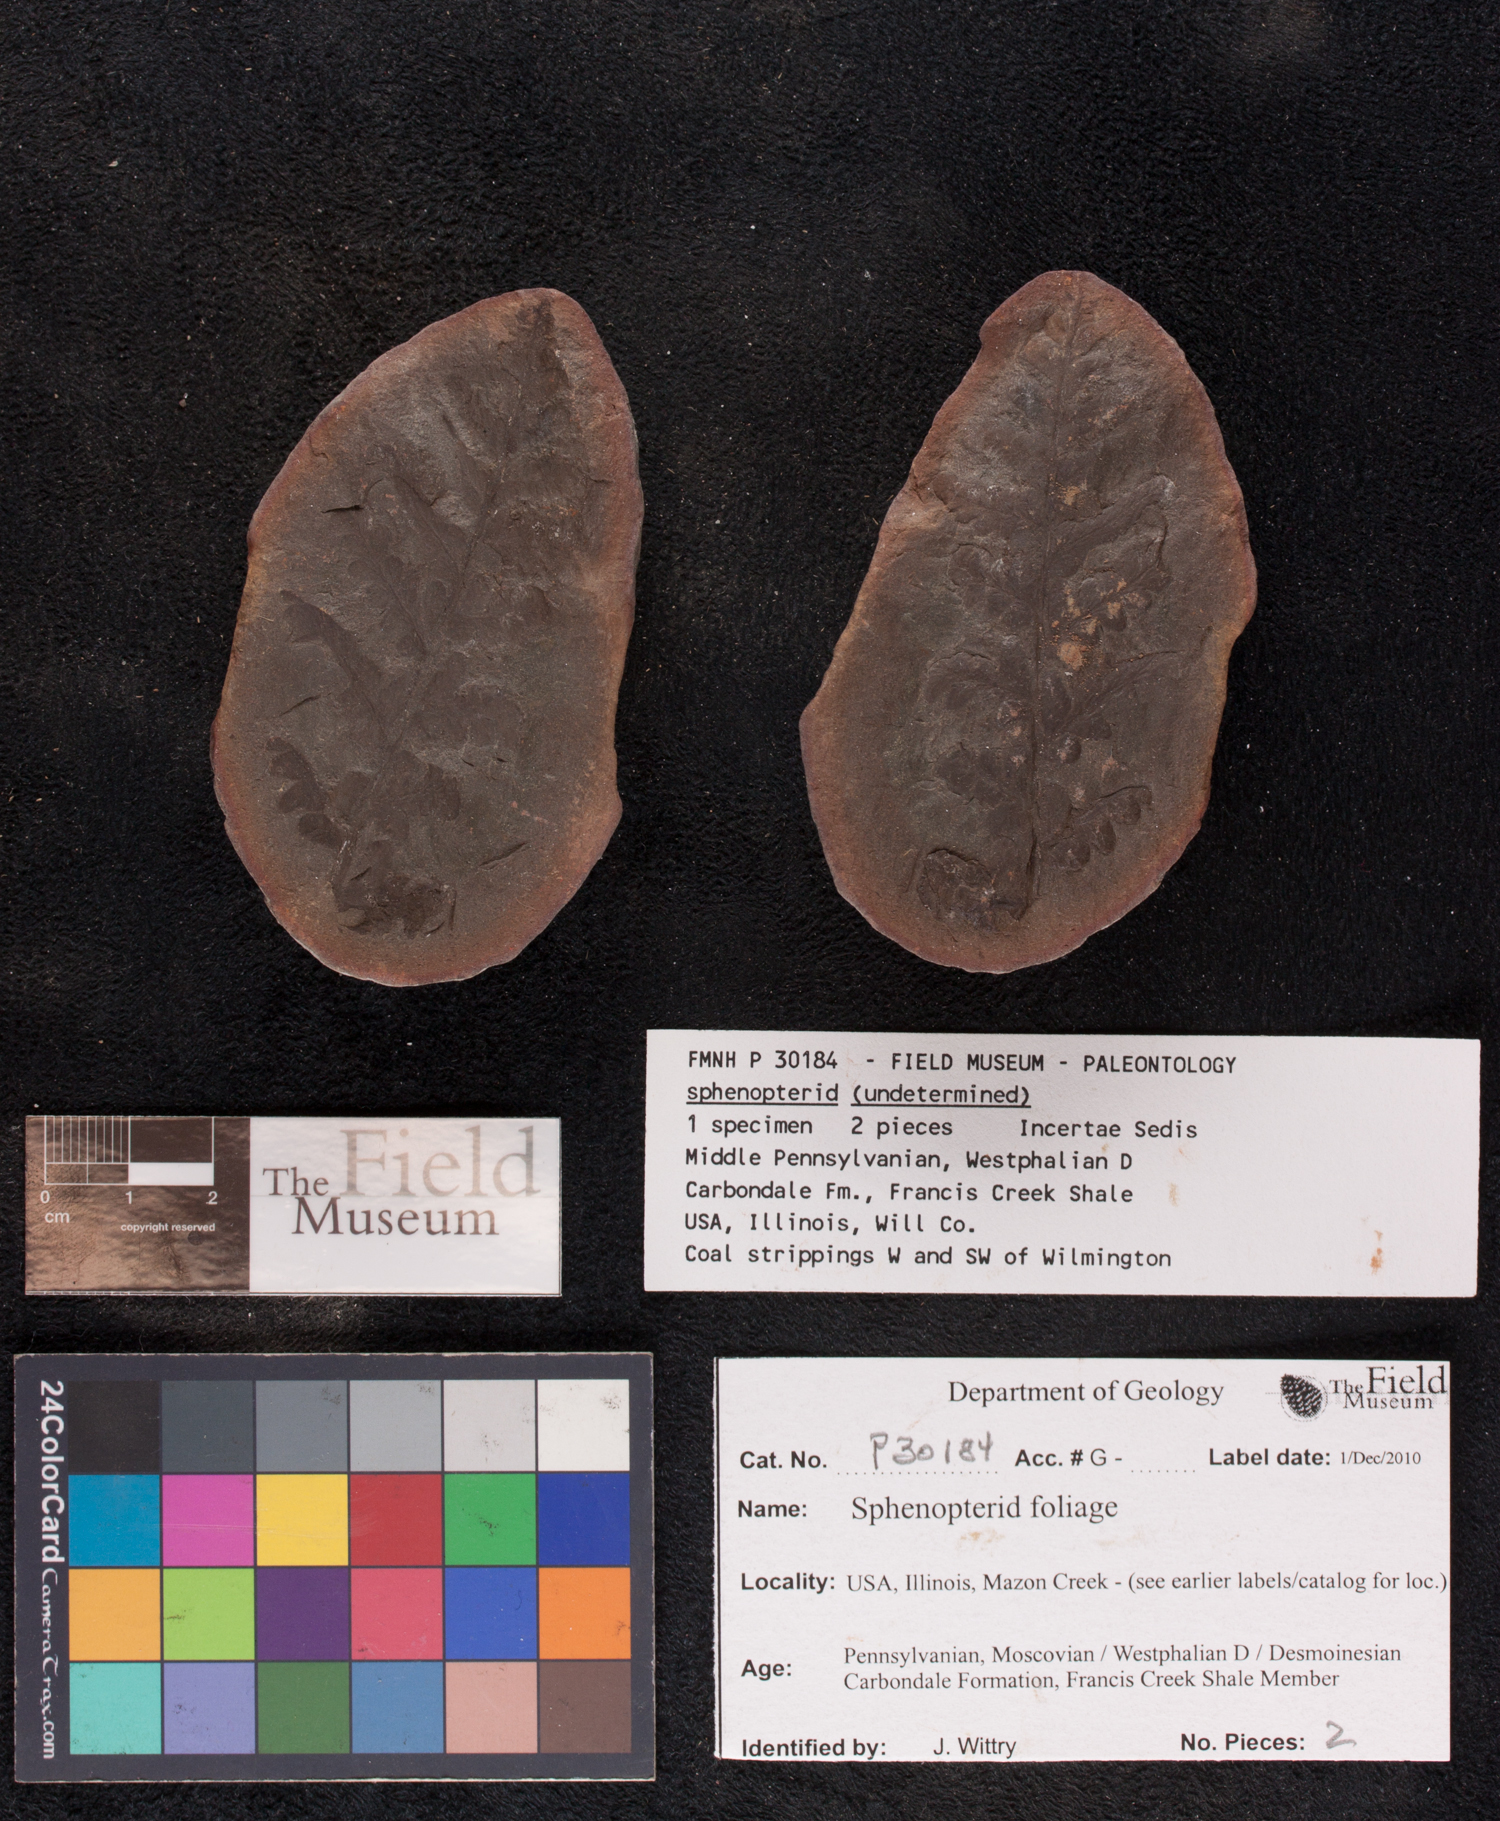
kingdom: Plantae
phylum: Tracheophyta
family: Callistophytaceae
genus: Mariopteris
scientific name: Mariopteris
